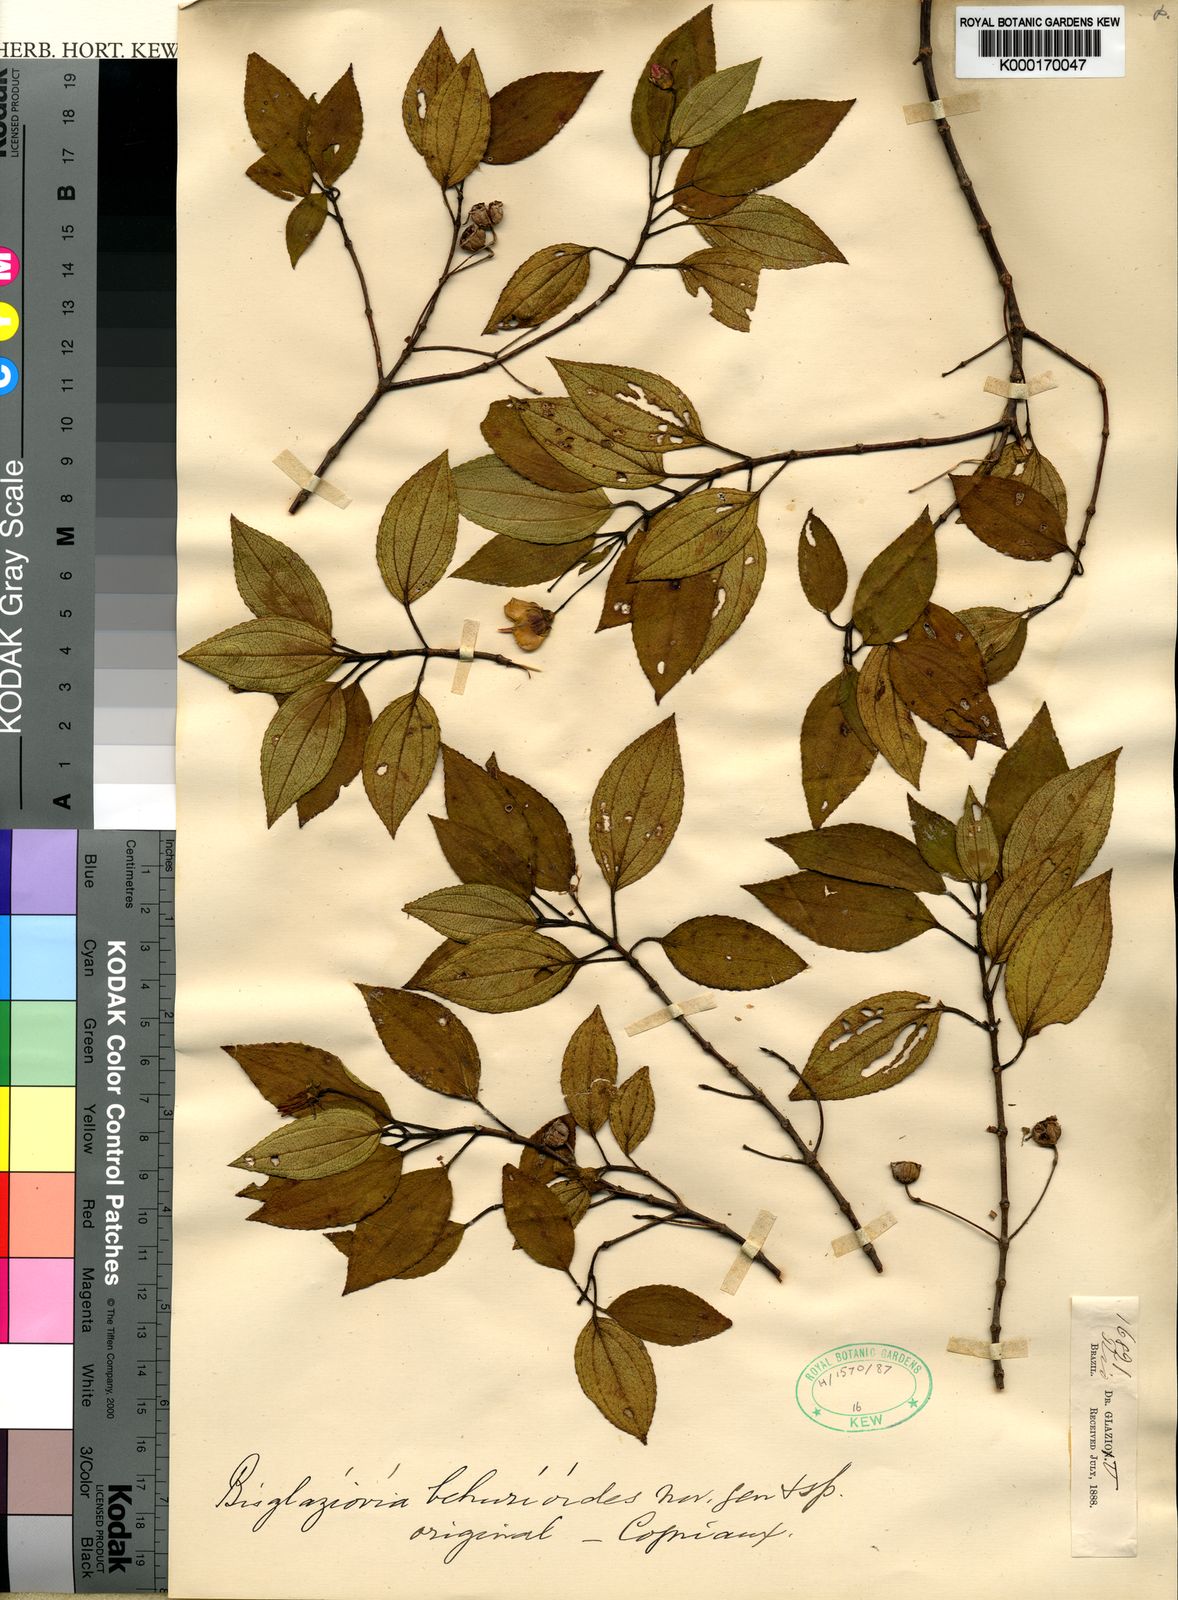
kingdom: Plantae
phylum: Tracheophyta
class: Magnoliopsida
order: Myrtales
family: Melastomataceae
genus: Huberia
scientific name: Huberia mourae
